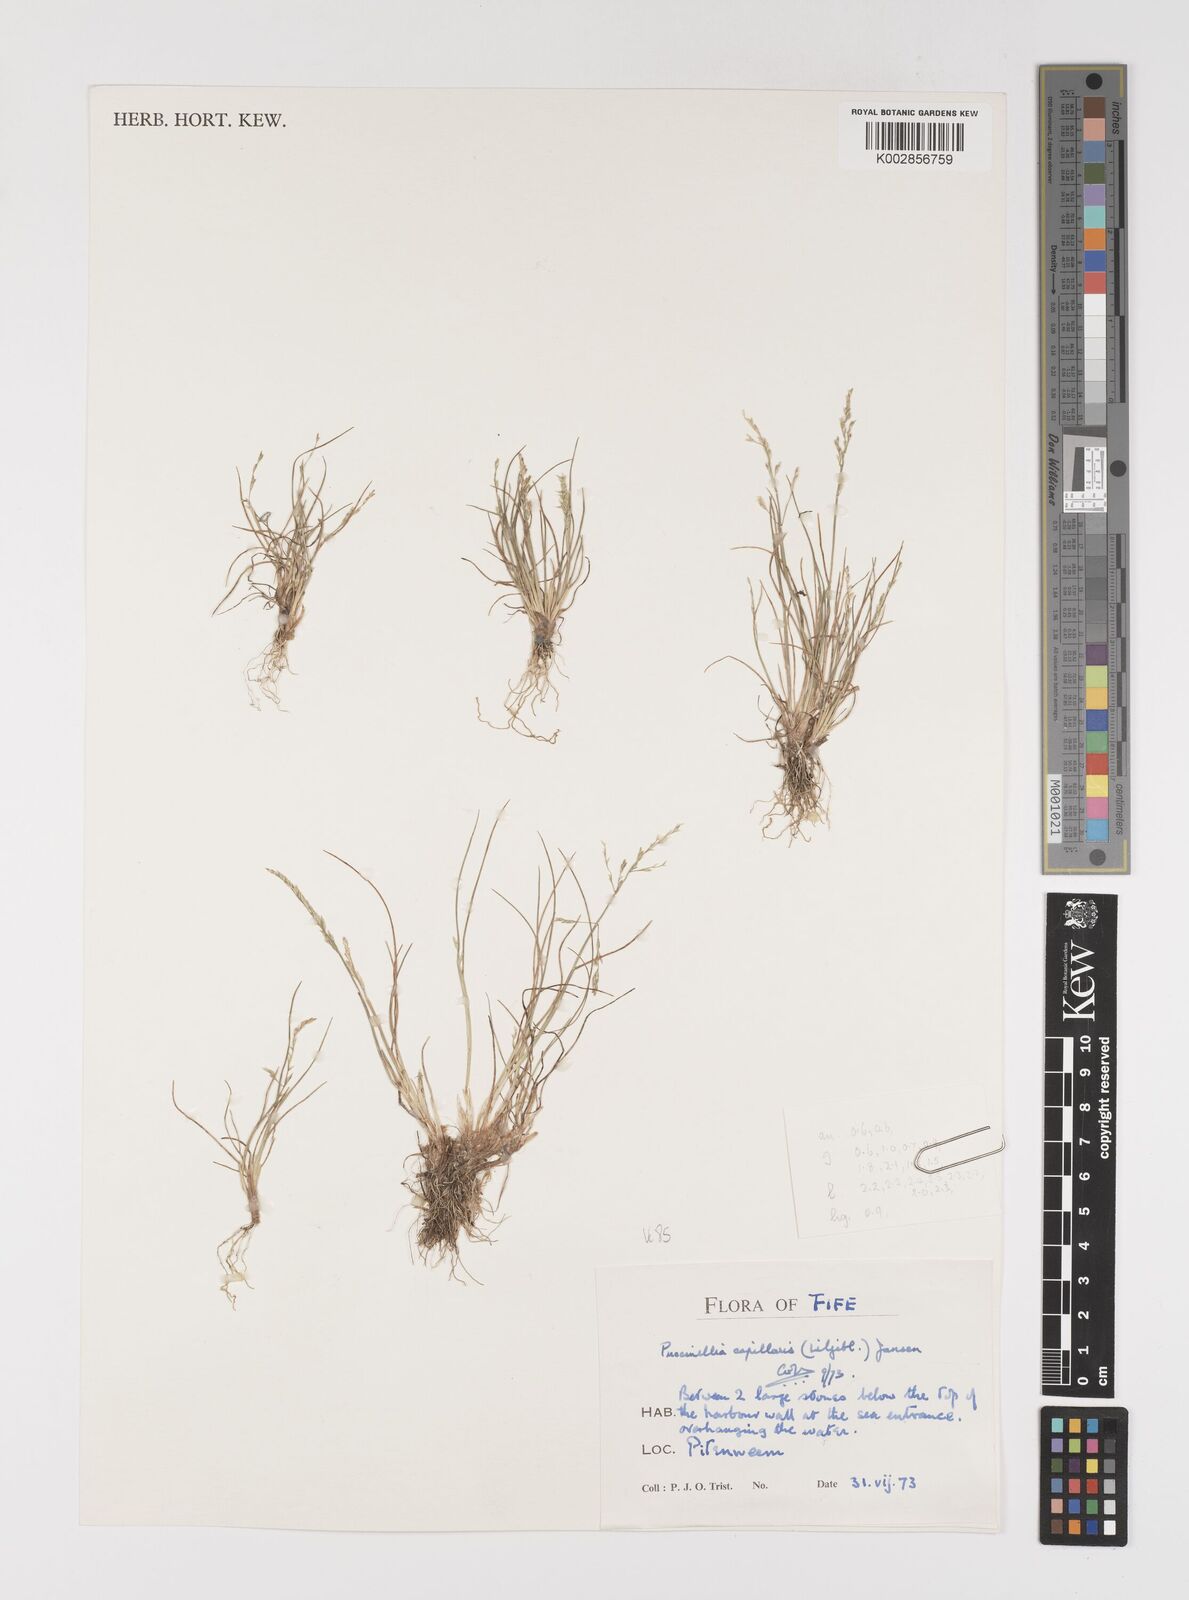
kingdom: Plantae
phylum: Tracheophyta
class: Liliopsida
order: Poales
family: Poaceae
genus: Puccinellia
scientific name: Puccinellia distans
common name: Weeping alkaligrass
